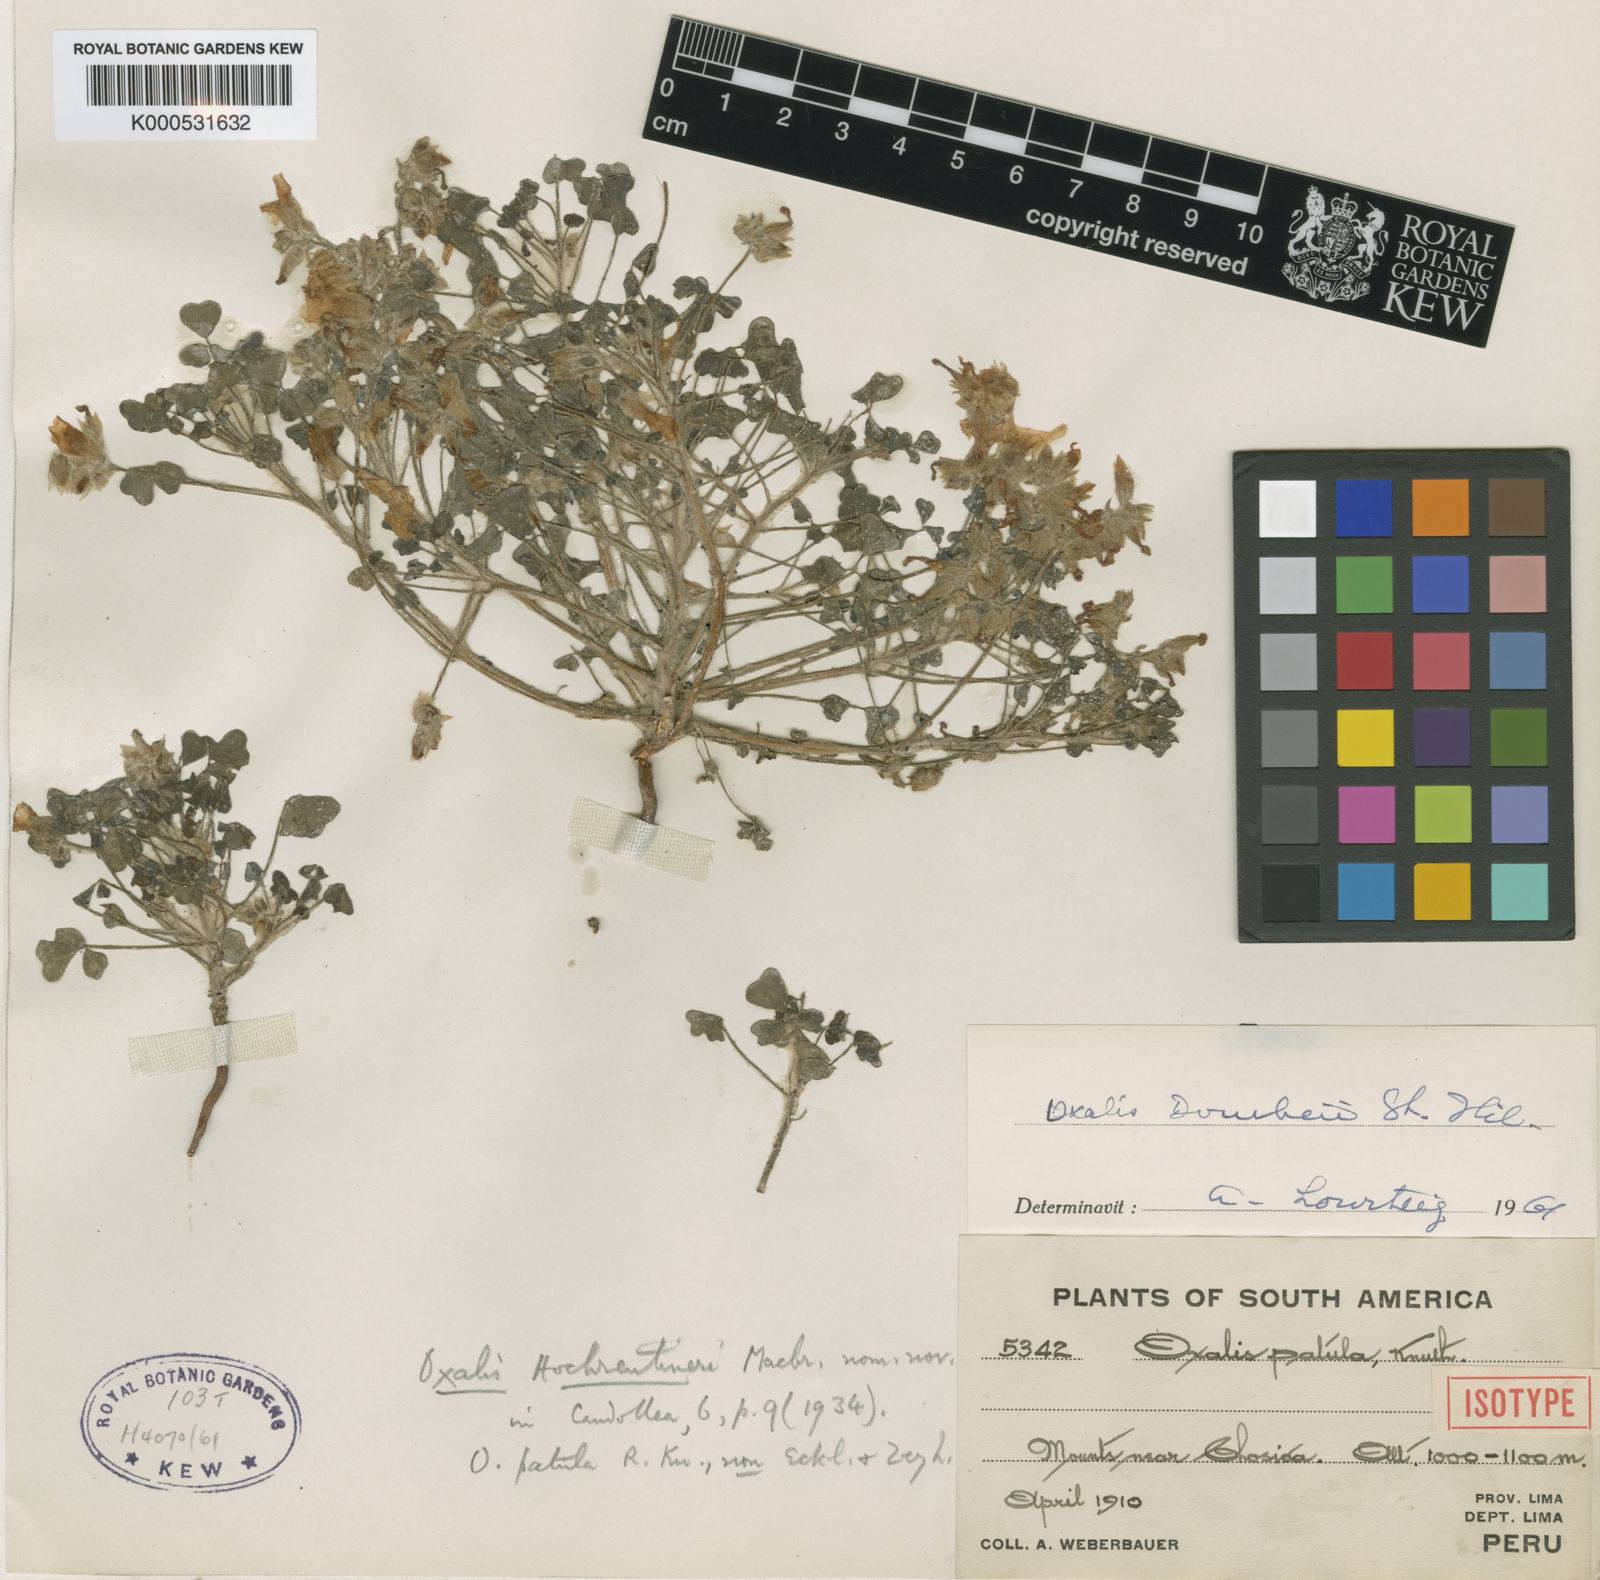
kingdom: Plantae
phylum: Tracheophyta
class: Magnoliopsida
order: Oxalidales
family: Oxalidaceae
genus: Oxalis
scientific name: Oxalis dombeyi
